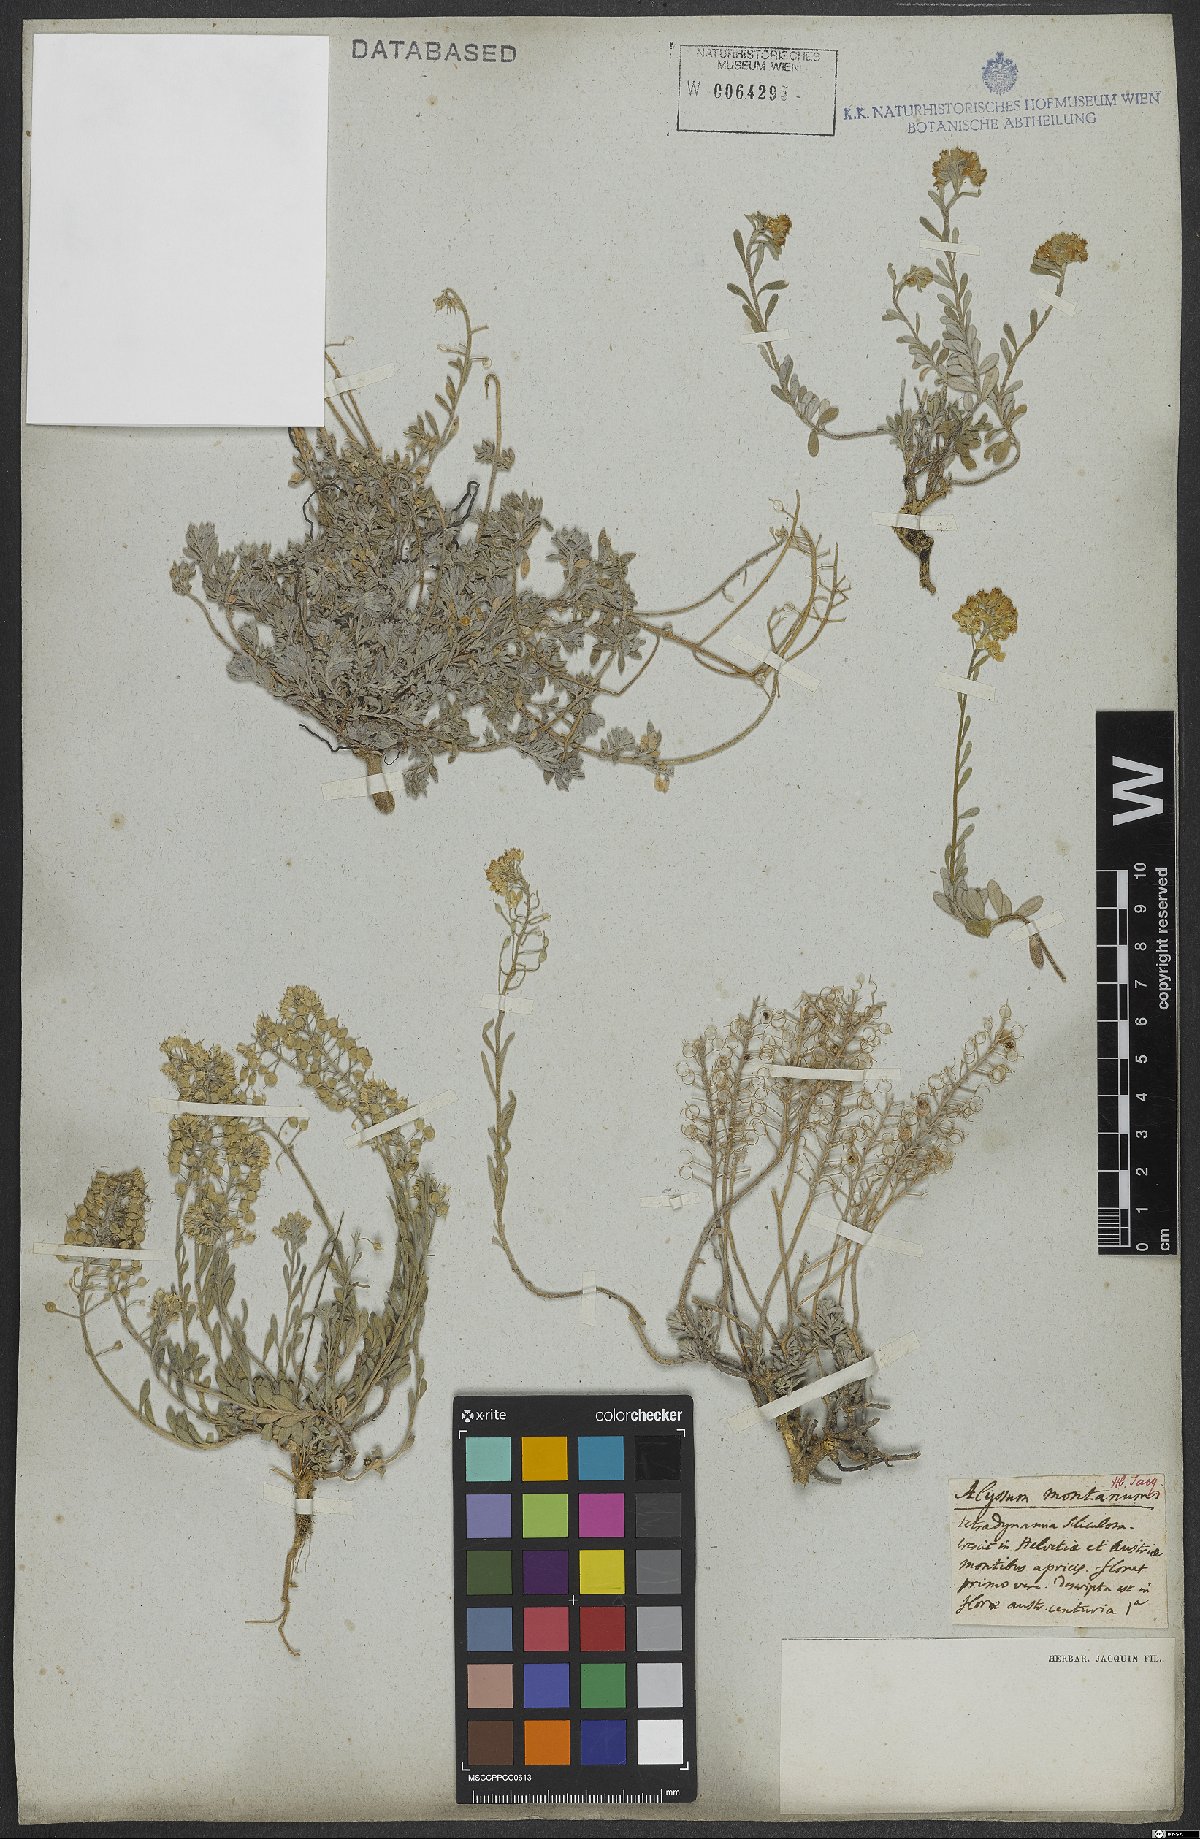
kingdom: Plantae
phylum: Tracheophyta
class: Magnoliopsida
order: Brassicales
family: Brassicaceae
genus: Alyssum
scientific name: Alyssum montanum
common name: Mountain alison
